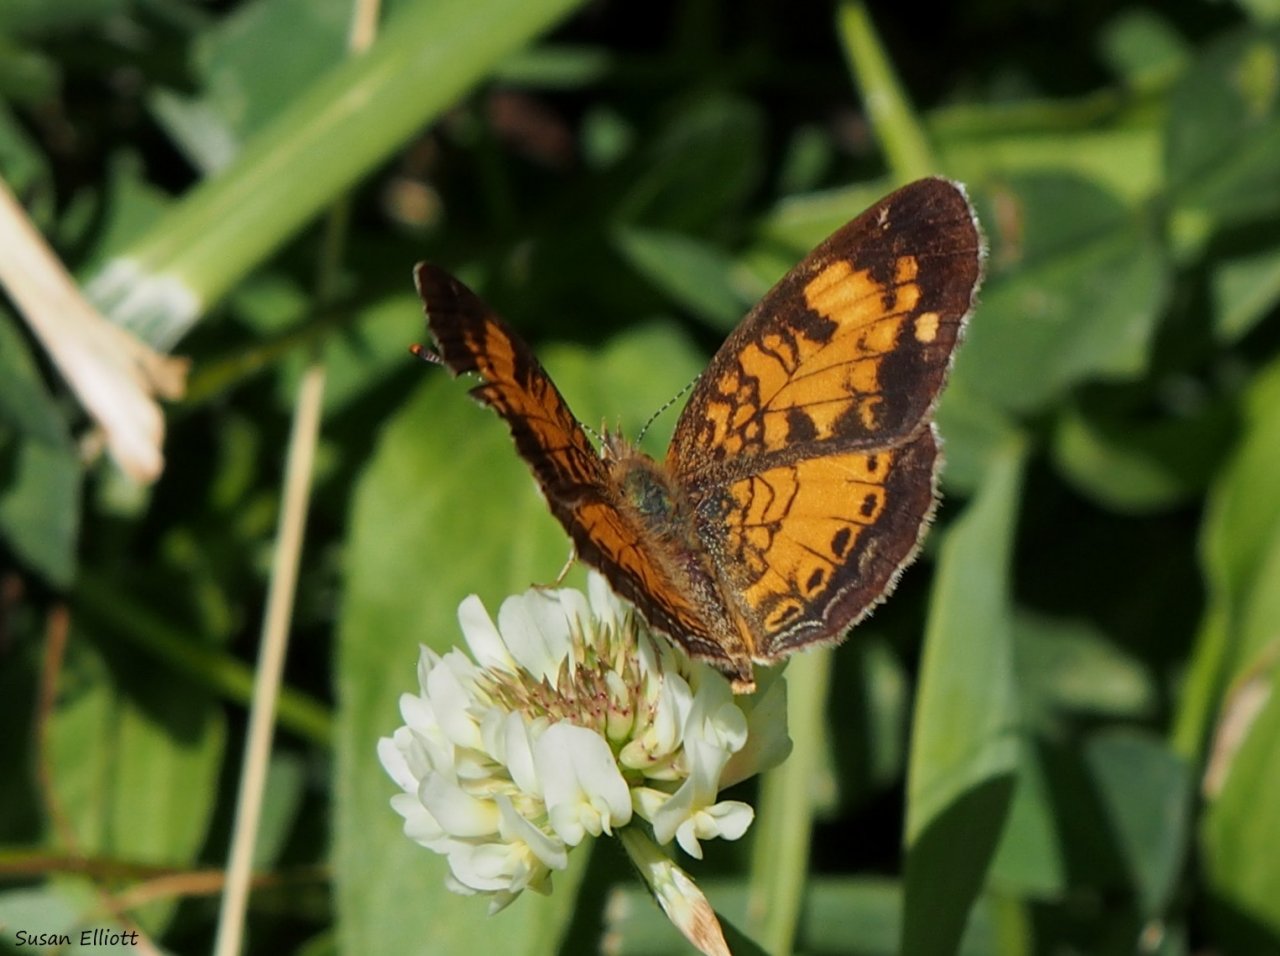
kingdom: Animalia
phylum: Arthropoda
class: Insecta
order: Lepidoptera
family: Nymphalidae
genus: Phyciodes
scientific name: Phyciodes
